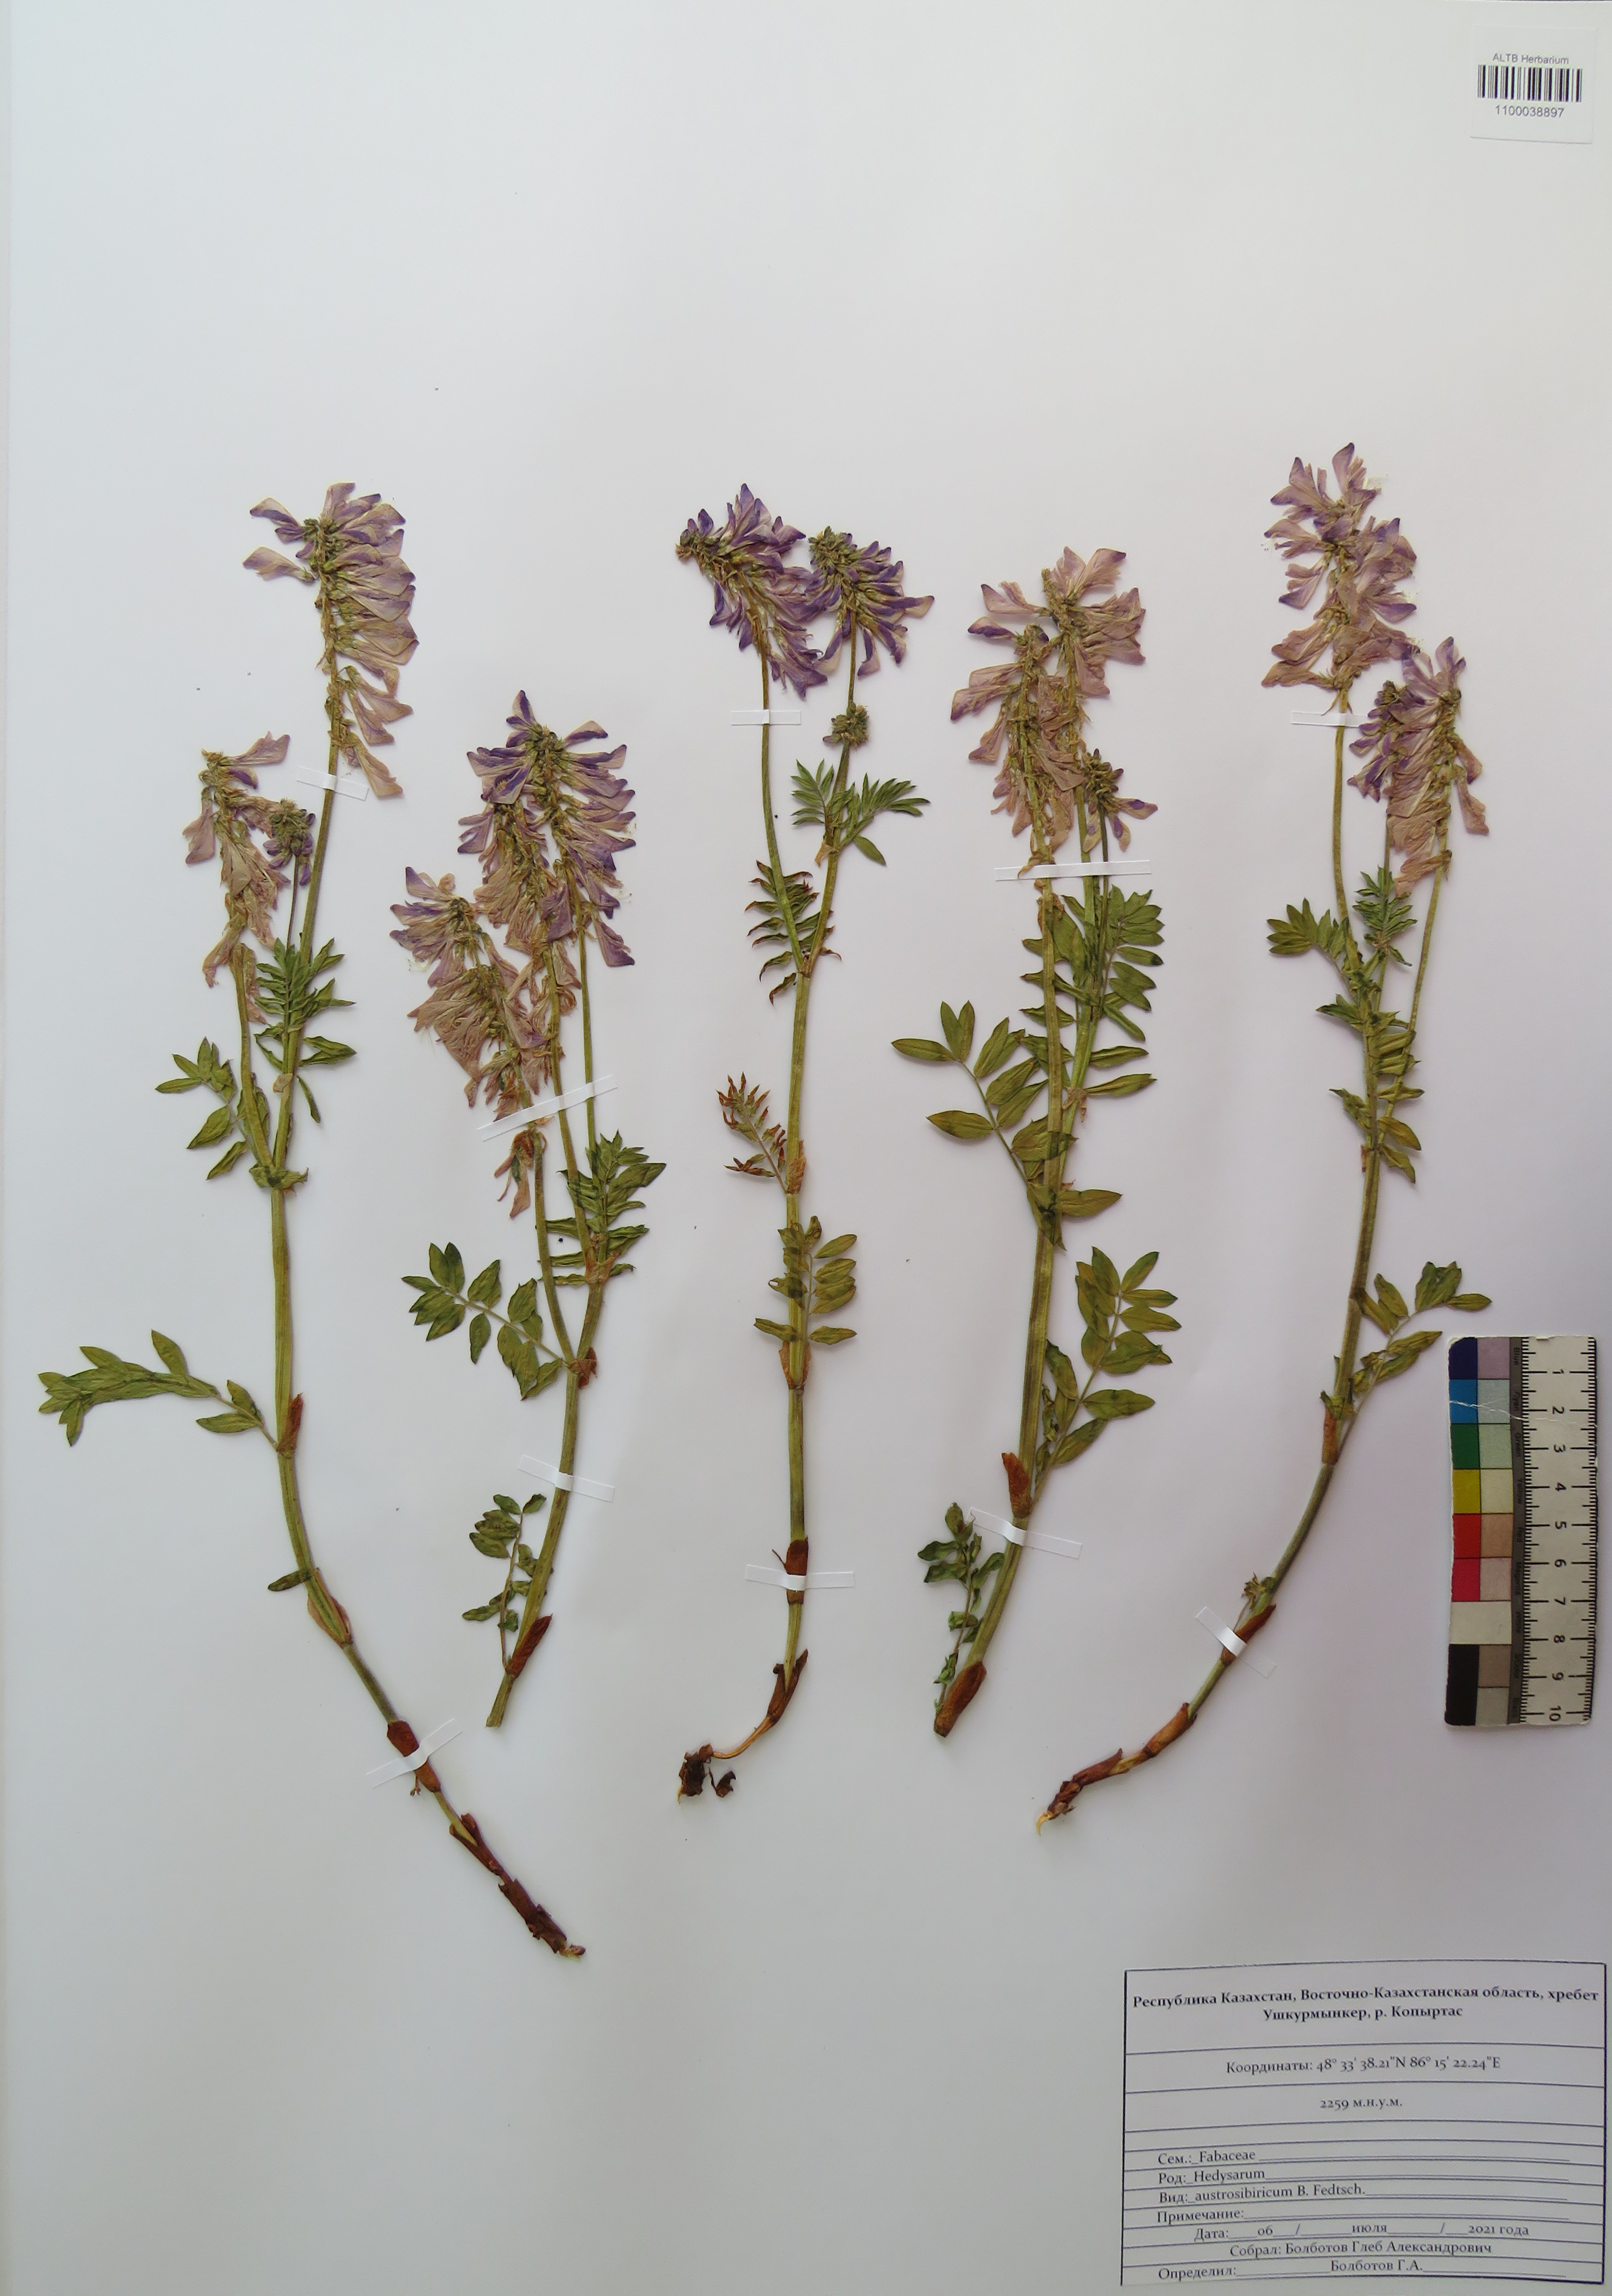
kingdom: Plantae
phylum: Tracheophyta
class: Magnoliopsida
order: Fabales
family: Fabaceae
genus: Hedysarum
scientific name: Hedysarum neglectum
